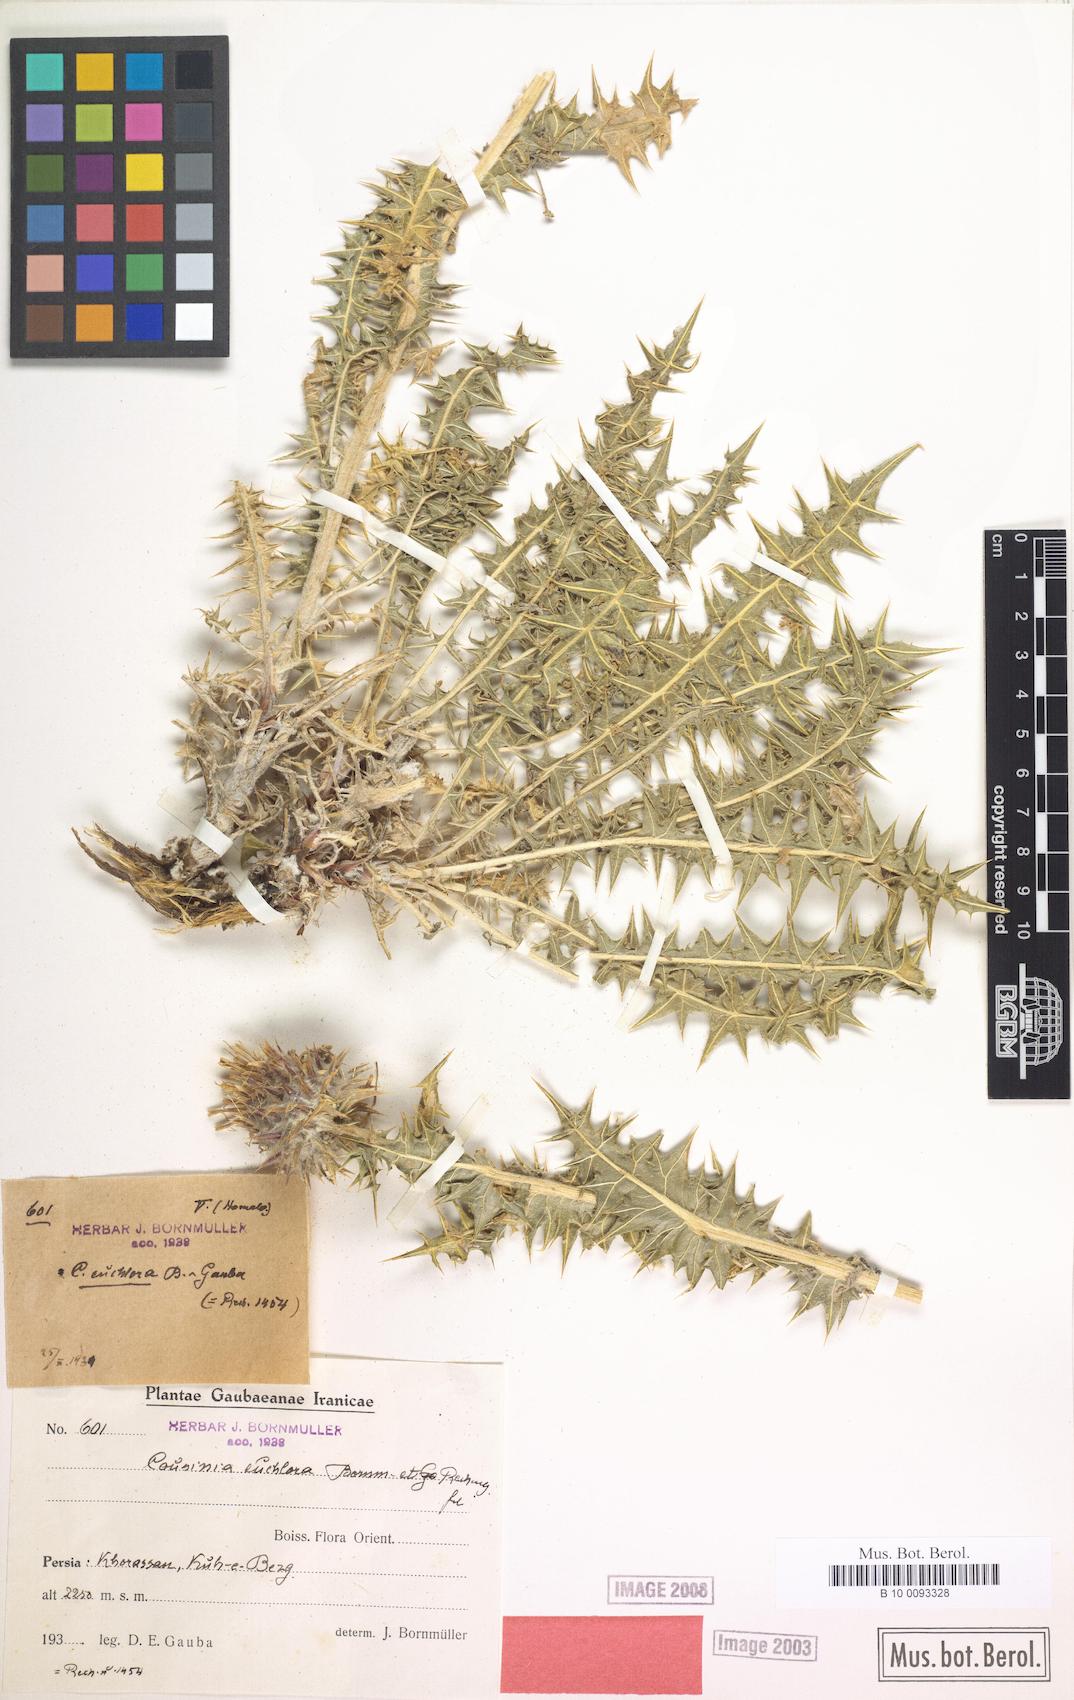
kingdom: Plantae
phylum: Tracheophyta
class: Magnoliopsida
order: Asterales
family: Asteraceae
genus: Cousinia
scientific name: Cousinia euchlora
